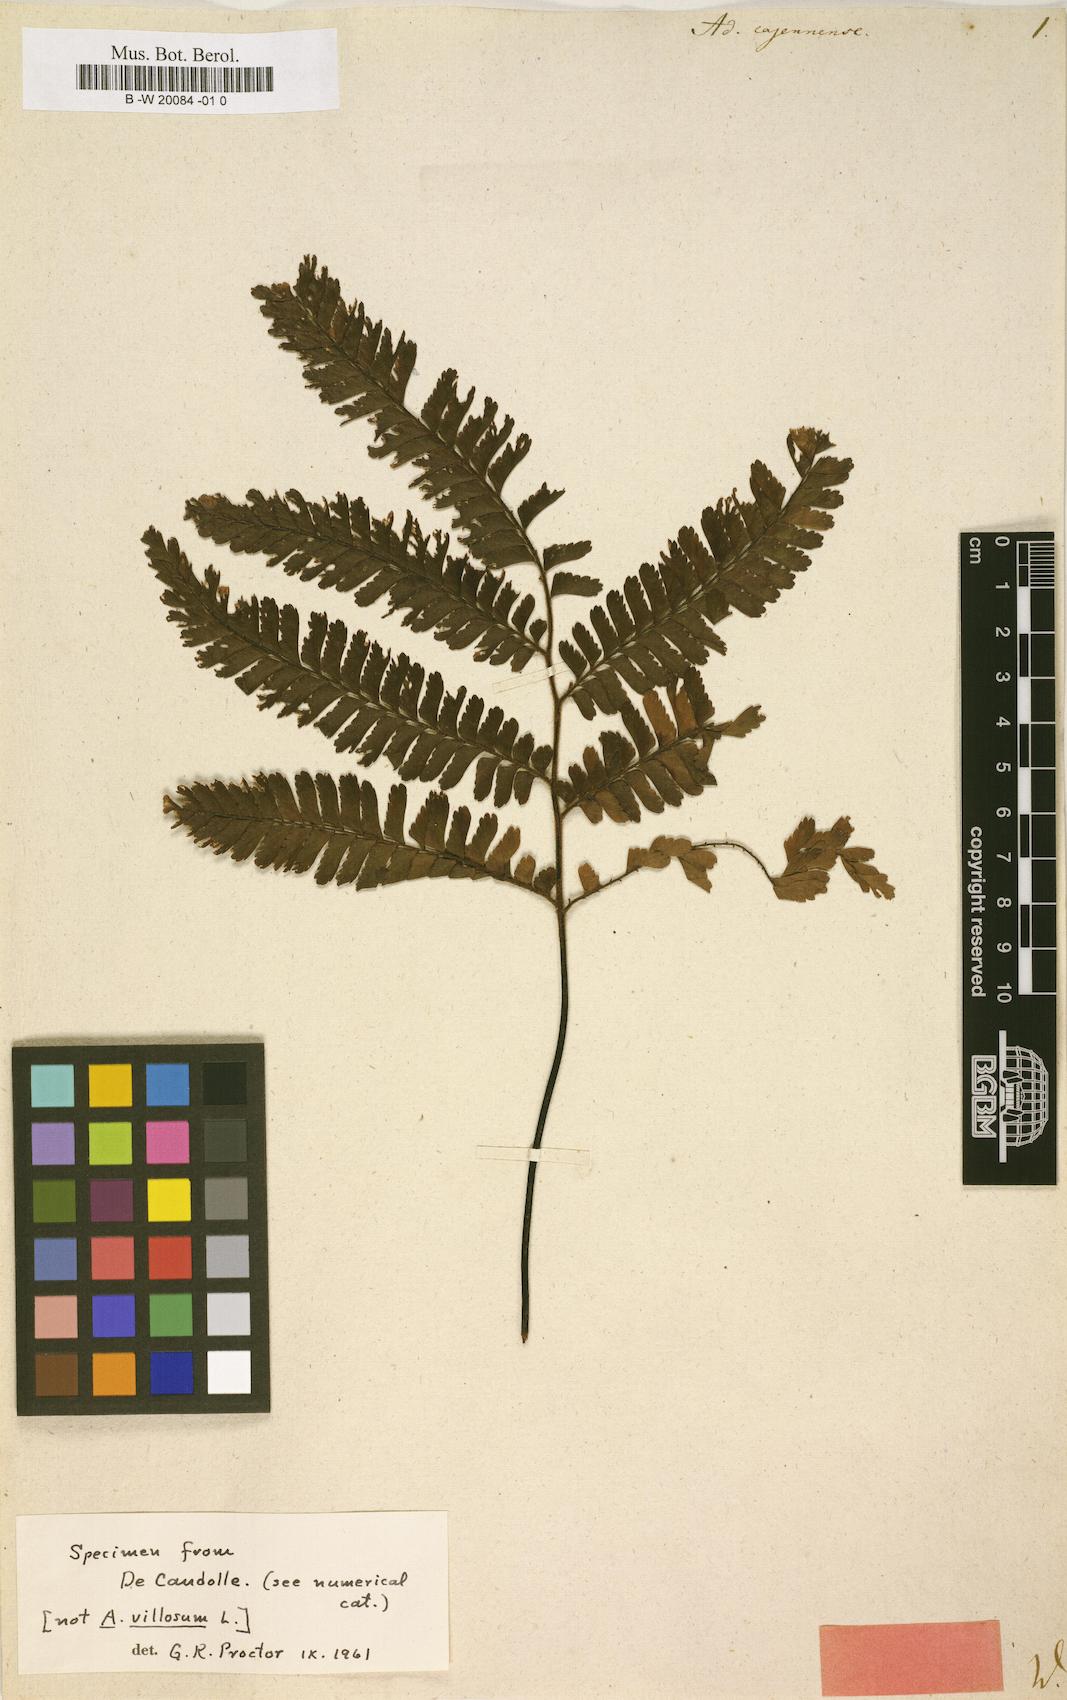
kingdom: Plantae
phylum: Tracheophyta
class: Polypodiopsida
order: Polypodiales
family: Pteridaceae
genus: Adiantum
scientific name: Adiantum cajennense
